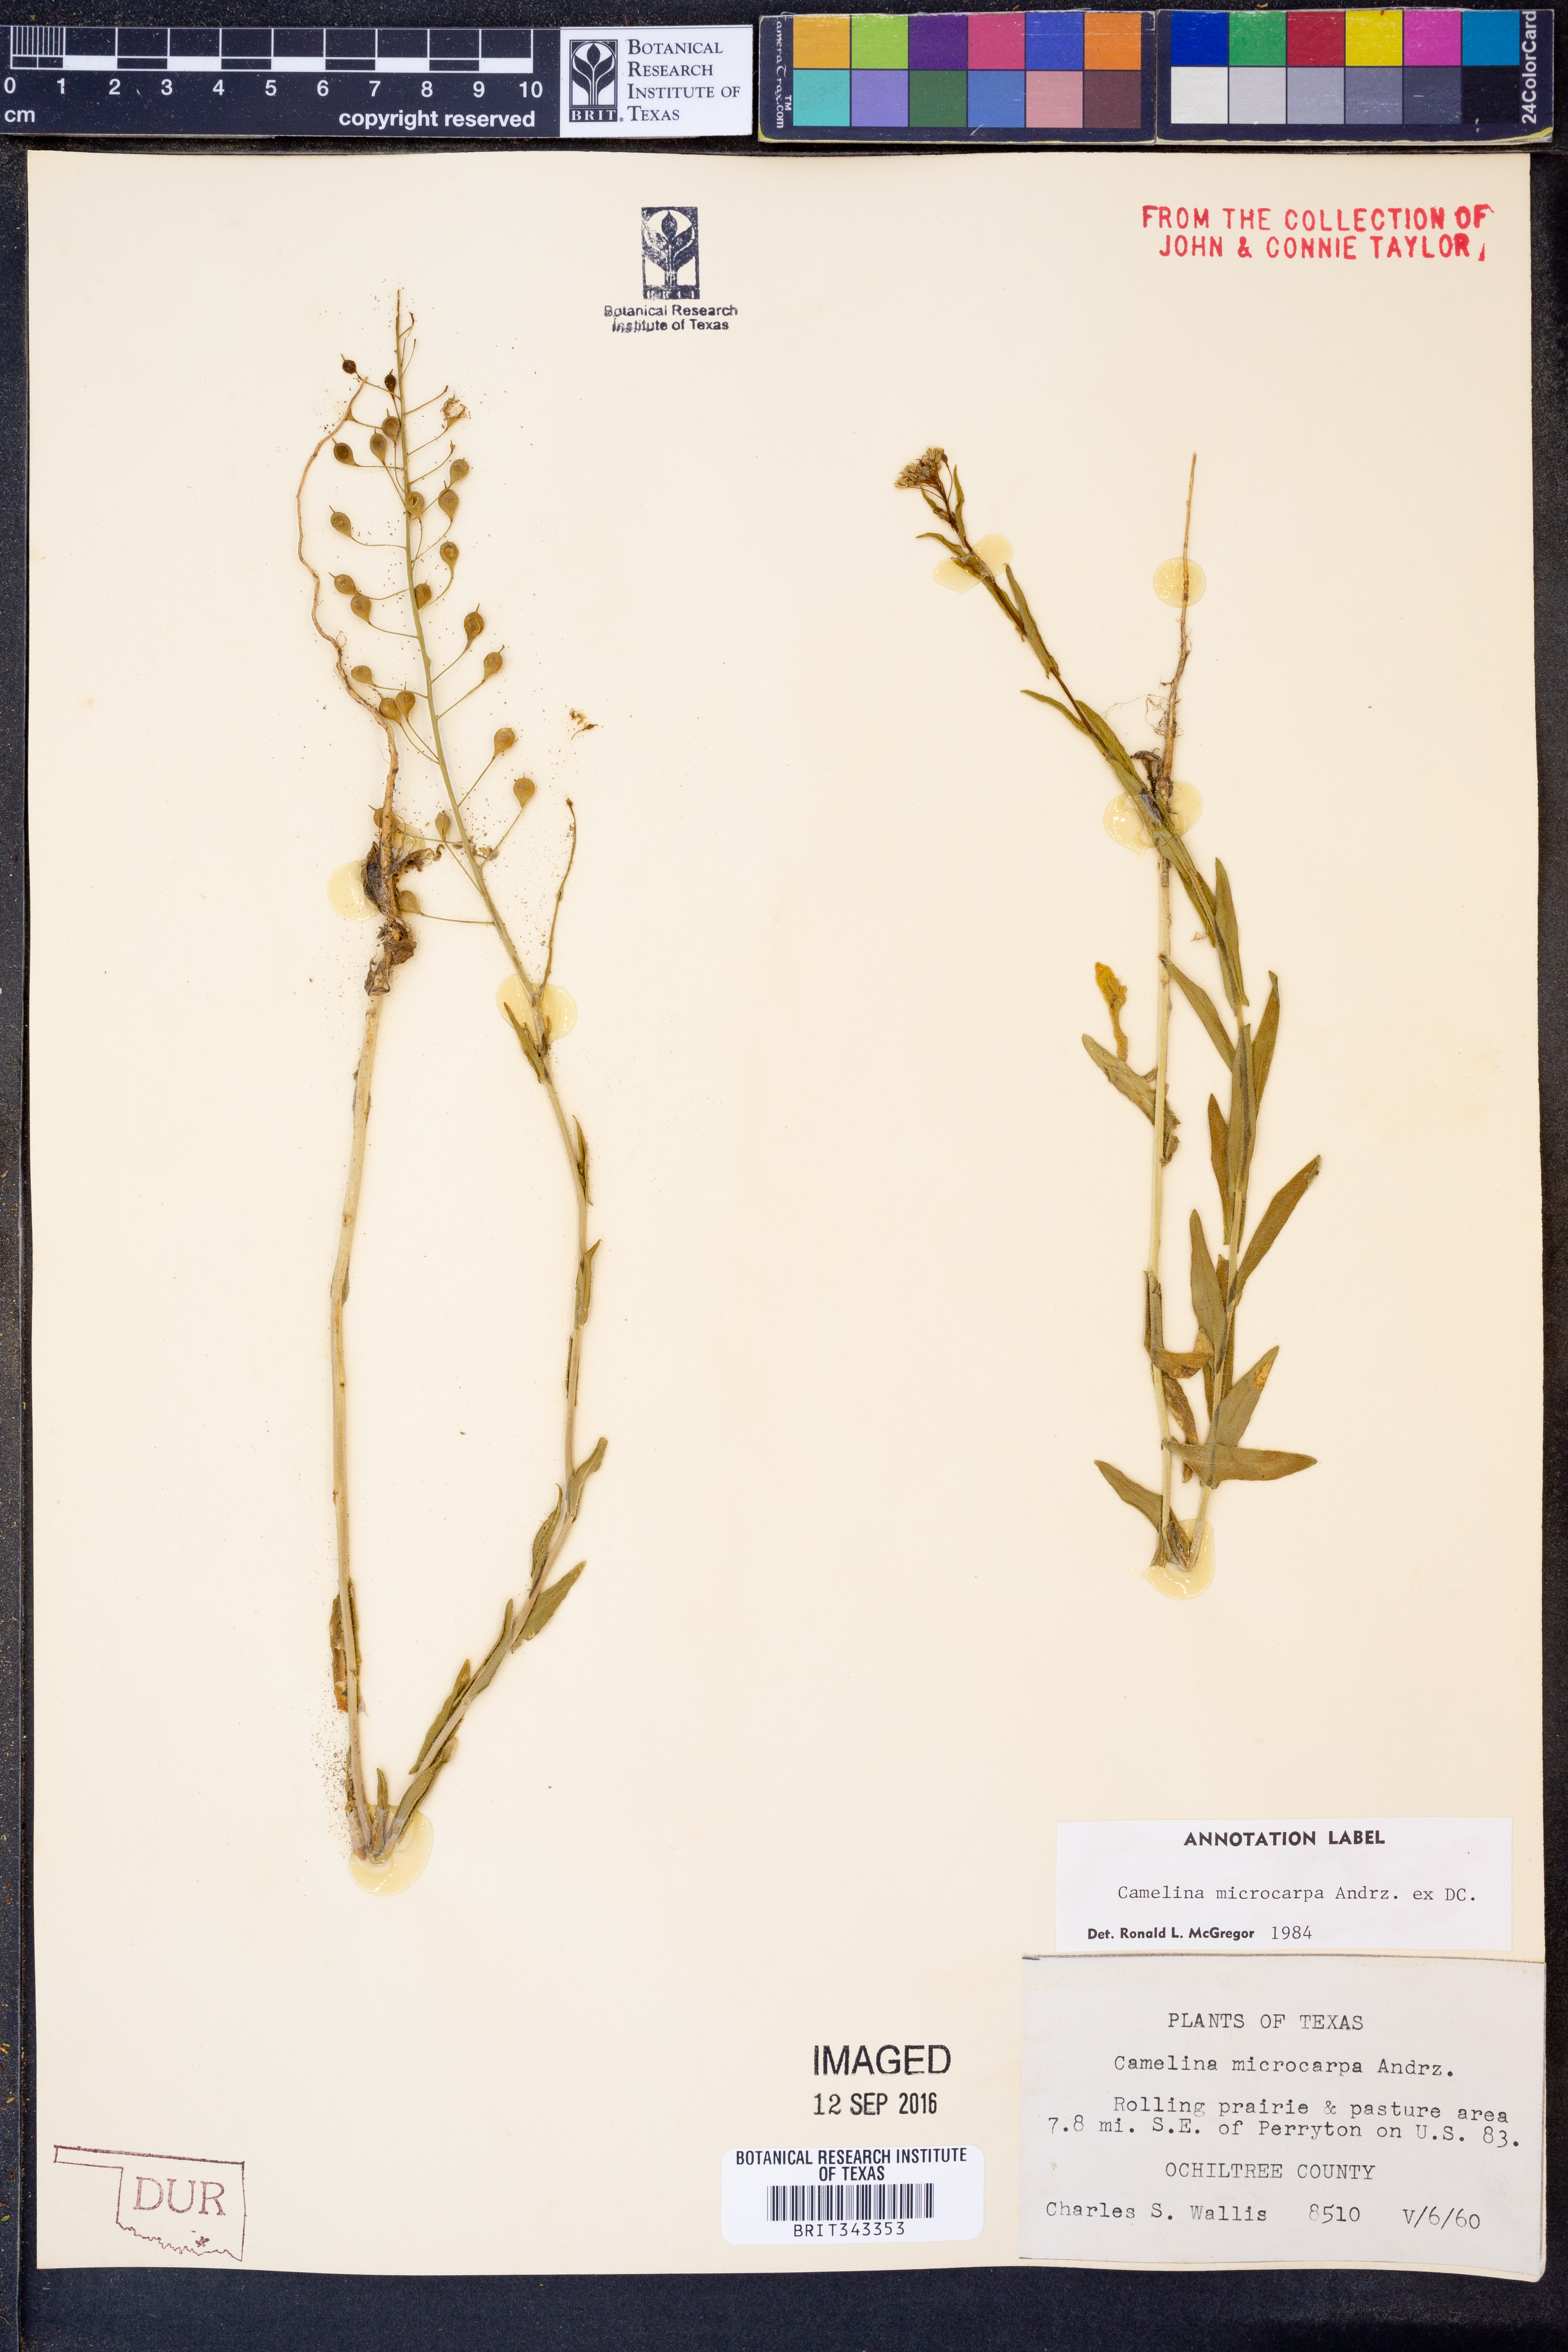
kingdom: Plantae
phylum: Tracheophyta
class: Magnoliopsida
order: Brassicales
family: Brassicaceae
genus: Camelina
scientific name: Camelina microcarpa
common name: Lesser gold-of-pleasure
